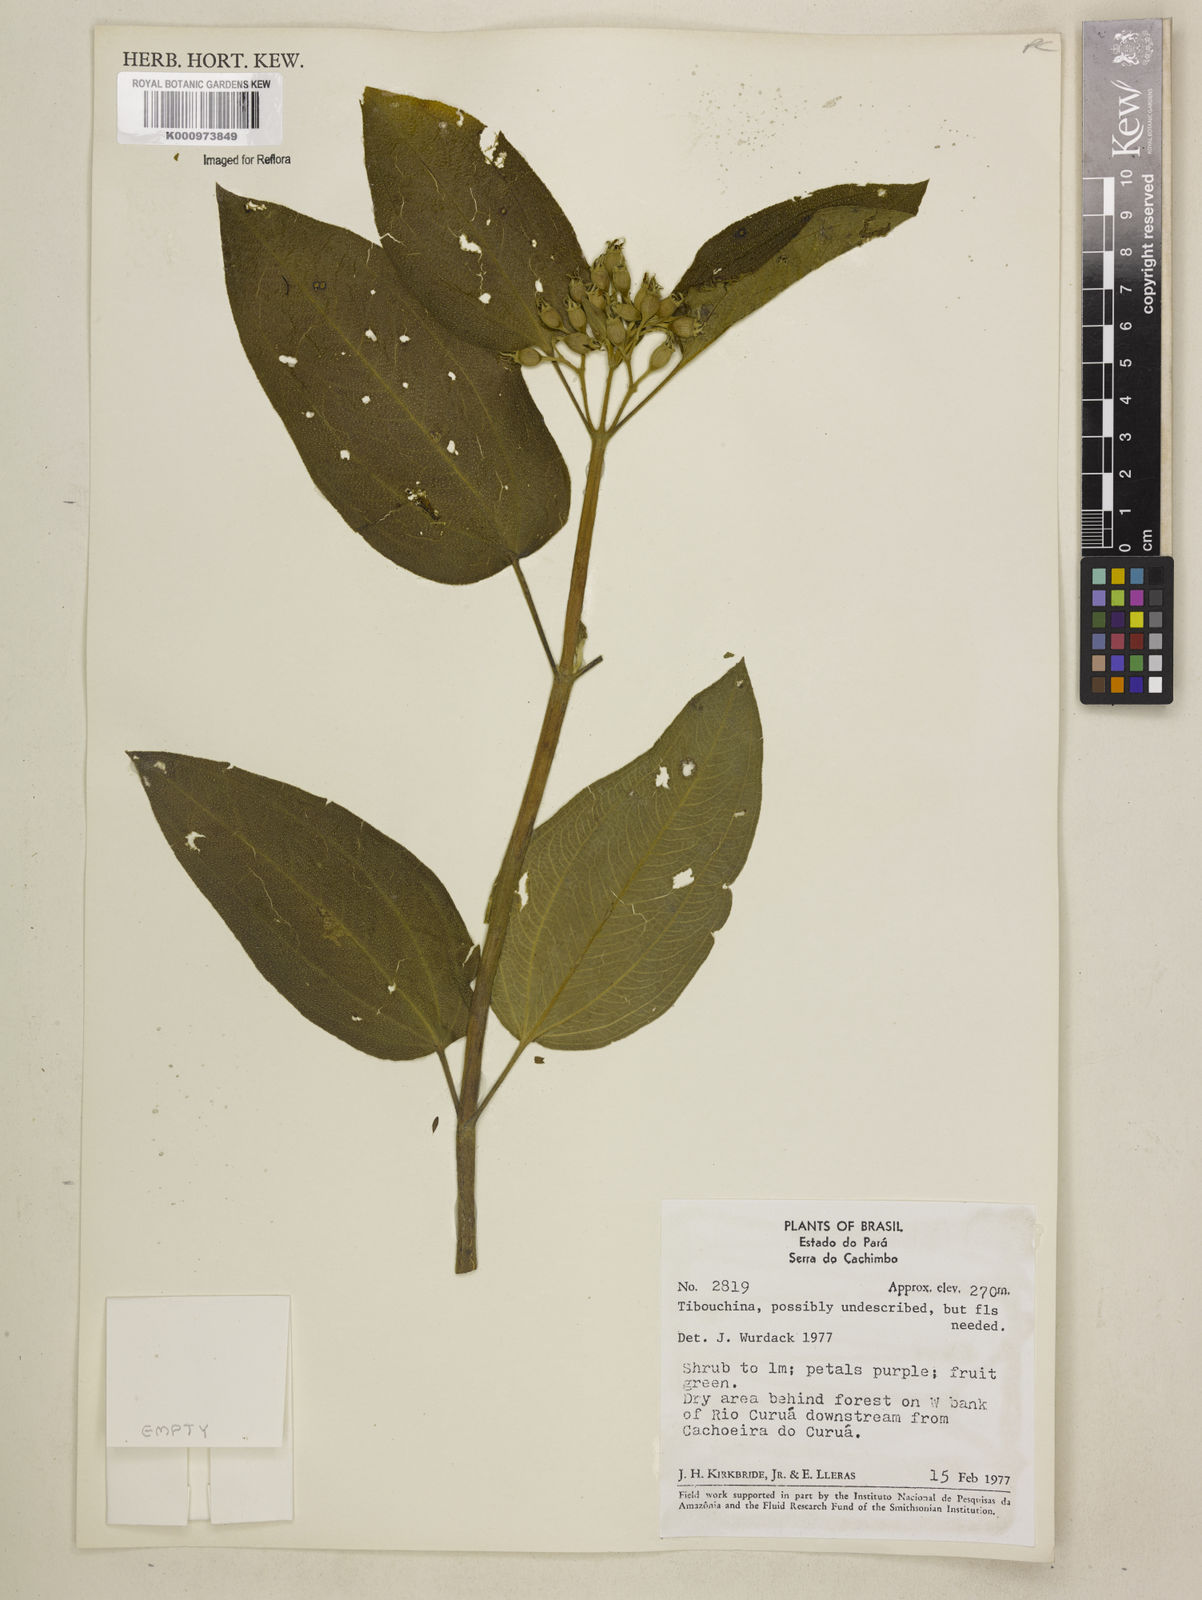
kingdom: Plantae
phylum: Tracheophyta
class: Magnoliopsida
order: Myrtales
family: Melastomataceae
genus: Tibouchina
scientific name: Tibouchina
